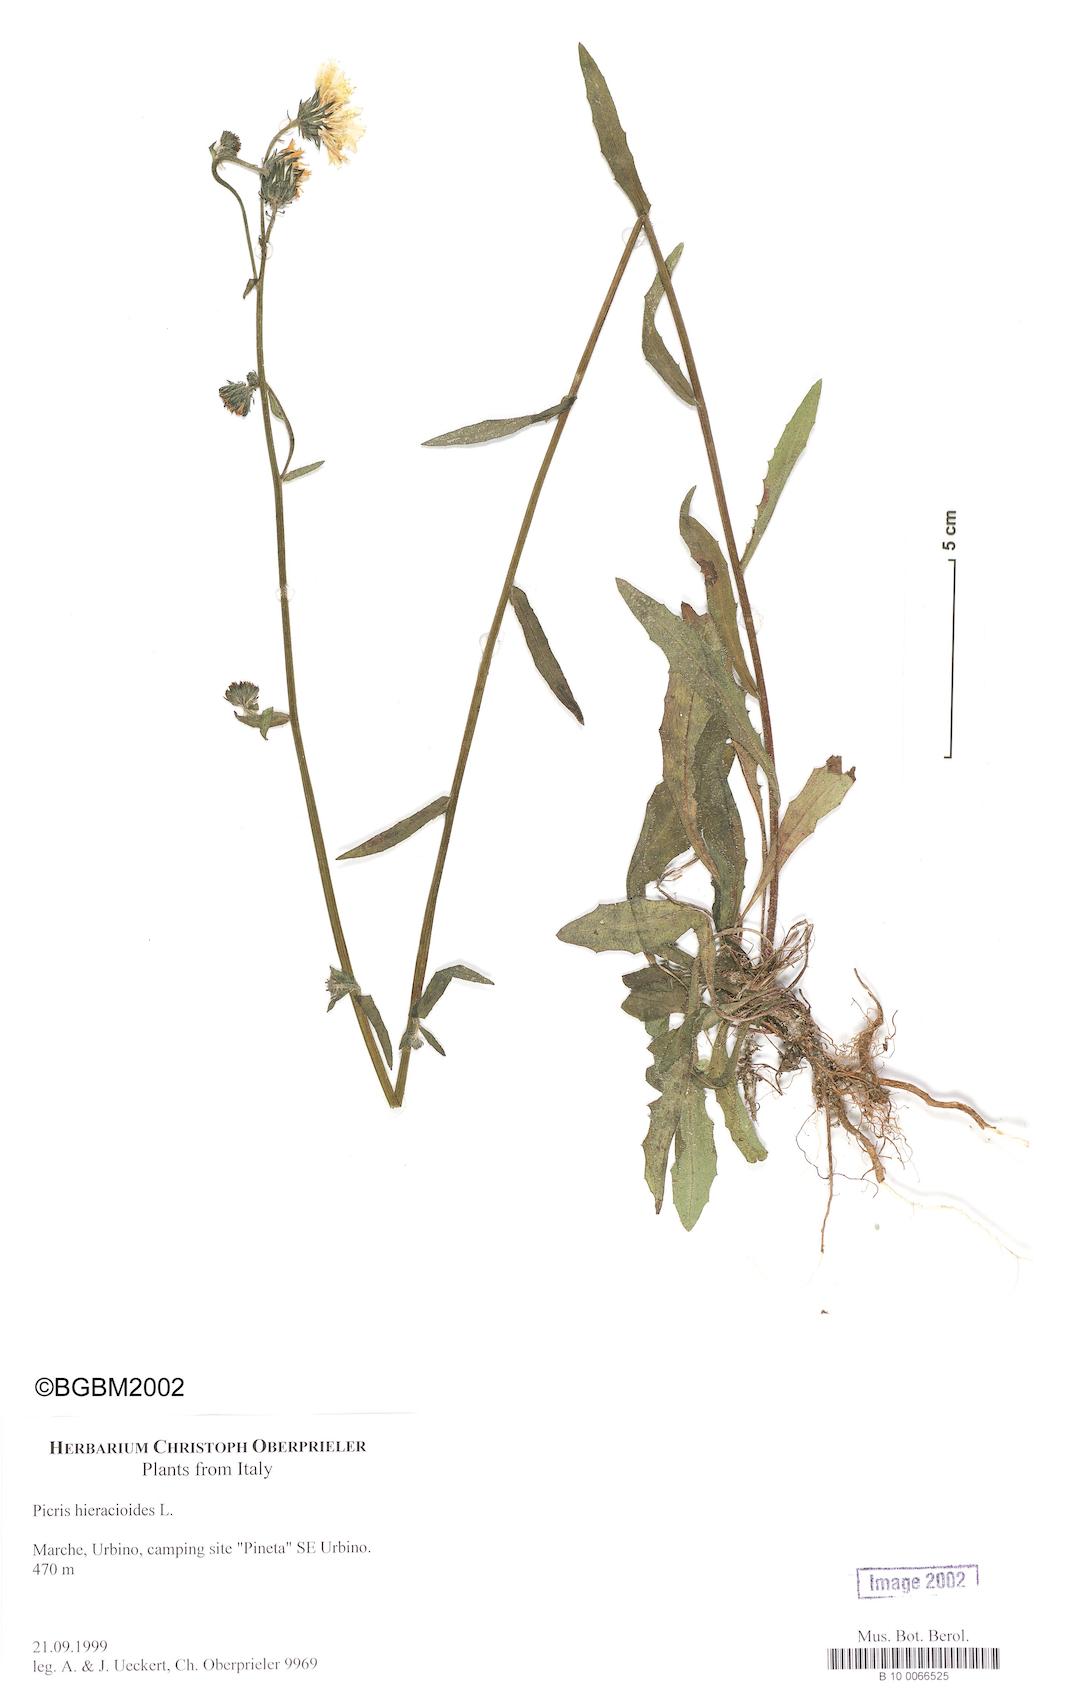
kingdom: Plantae
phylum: Tracheophyta
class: Magnoliopsida
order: Asterales
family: Asteraceae
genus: Picris
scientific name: Picris hieracioides
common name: Hawkweed oxtongue
